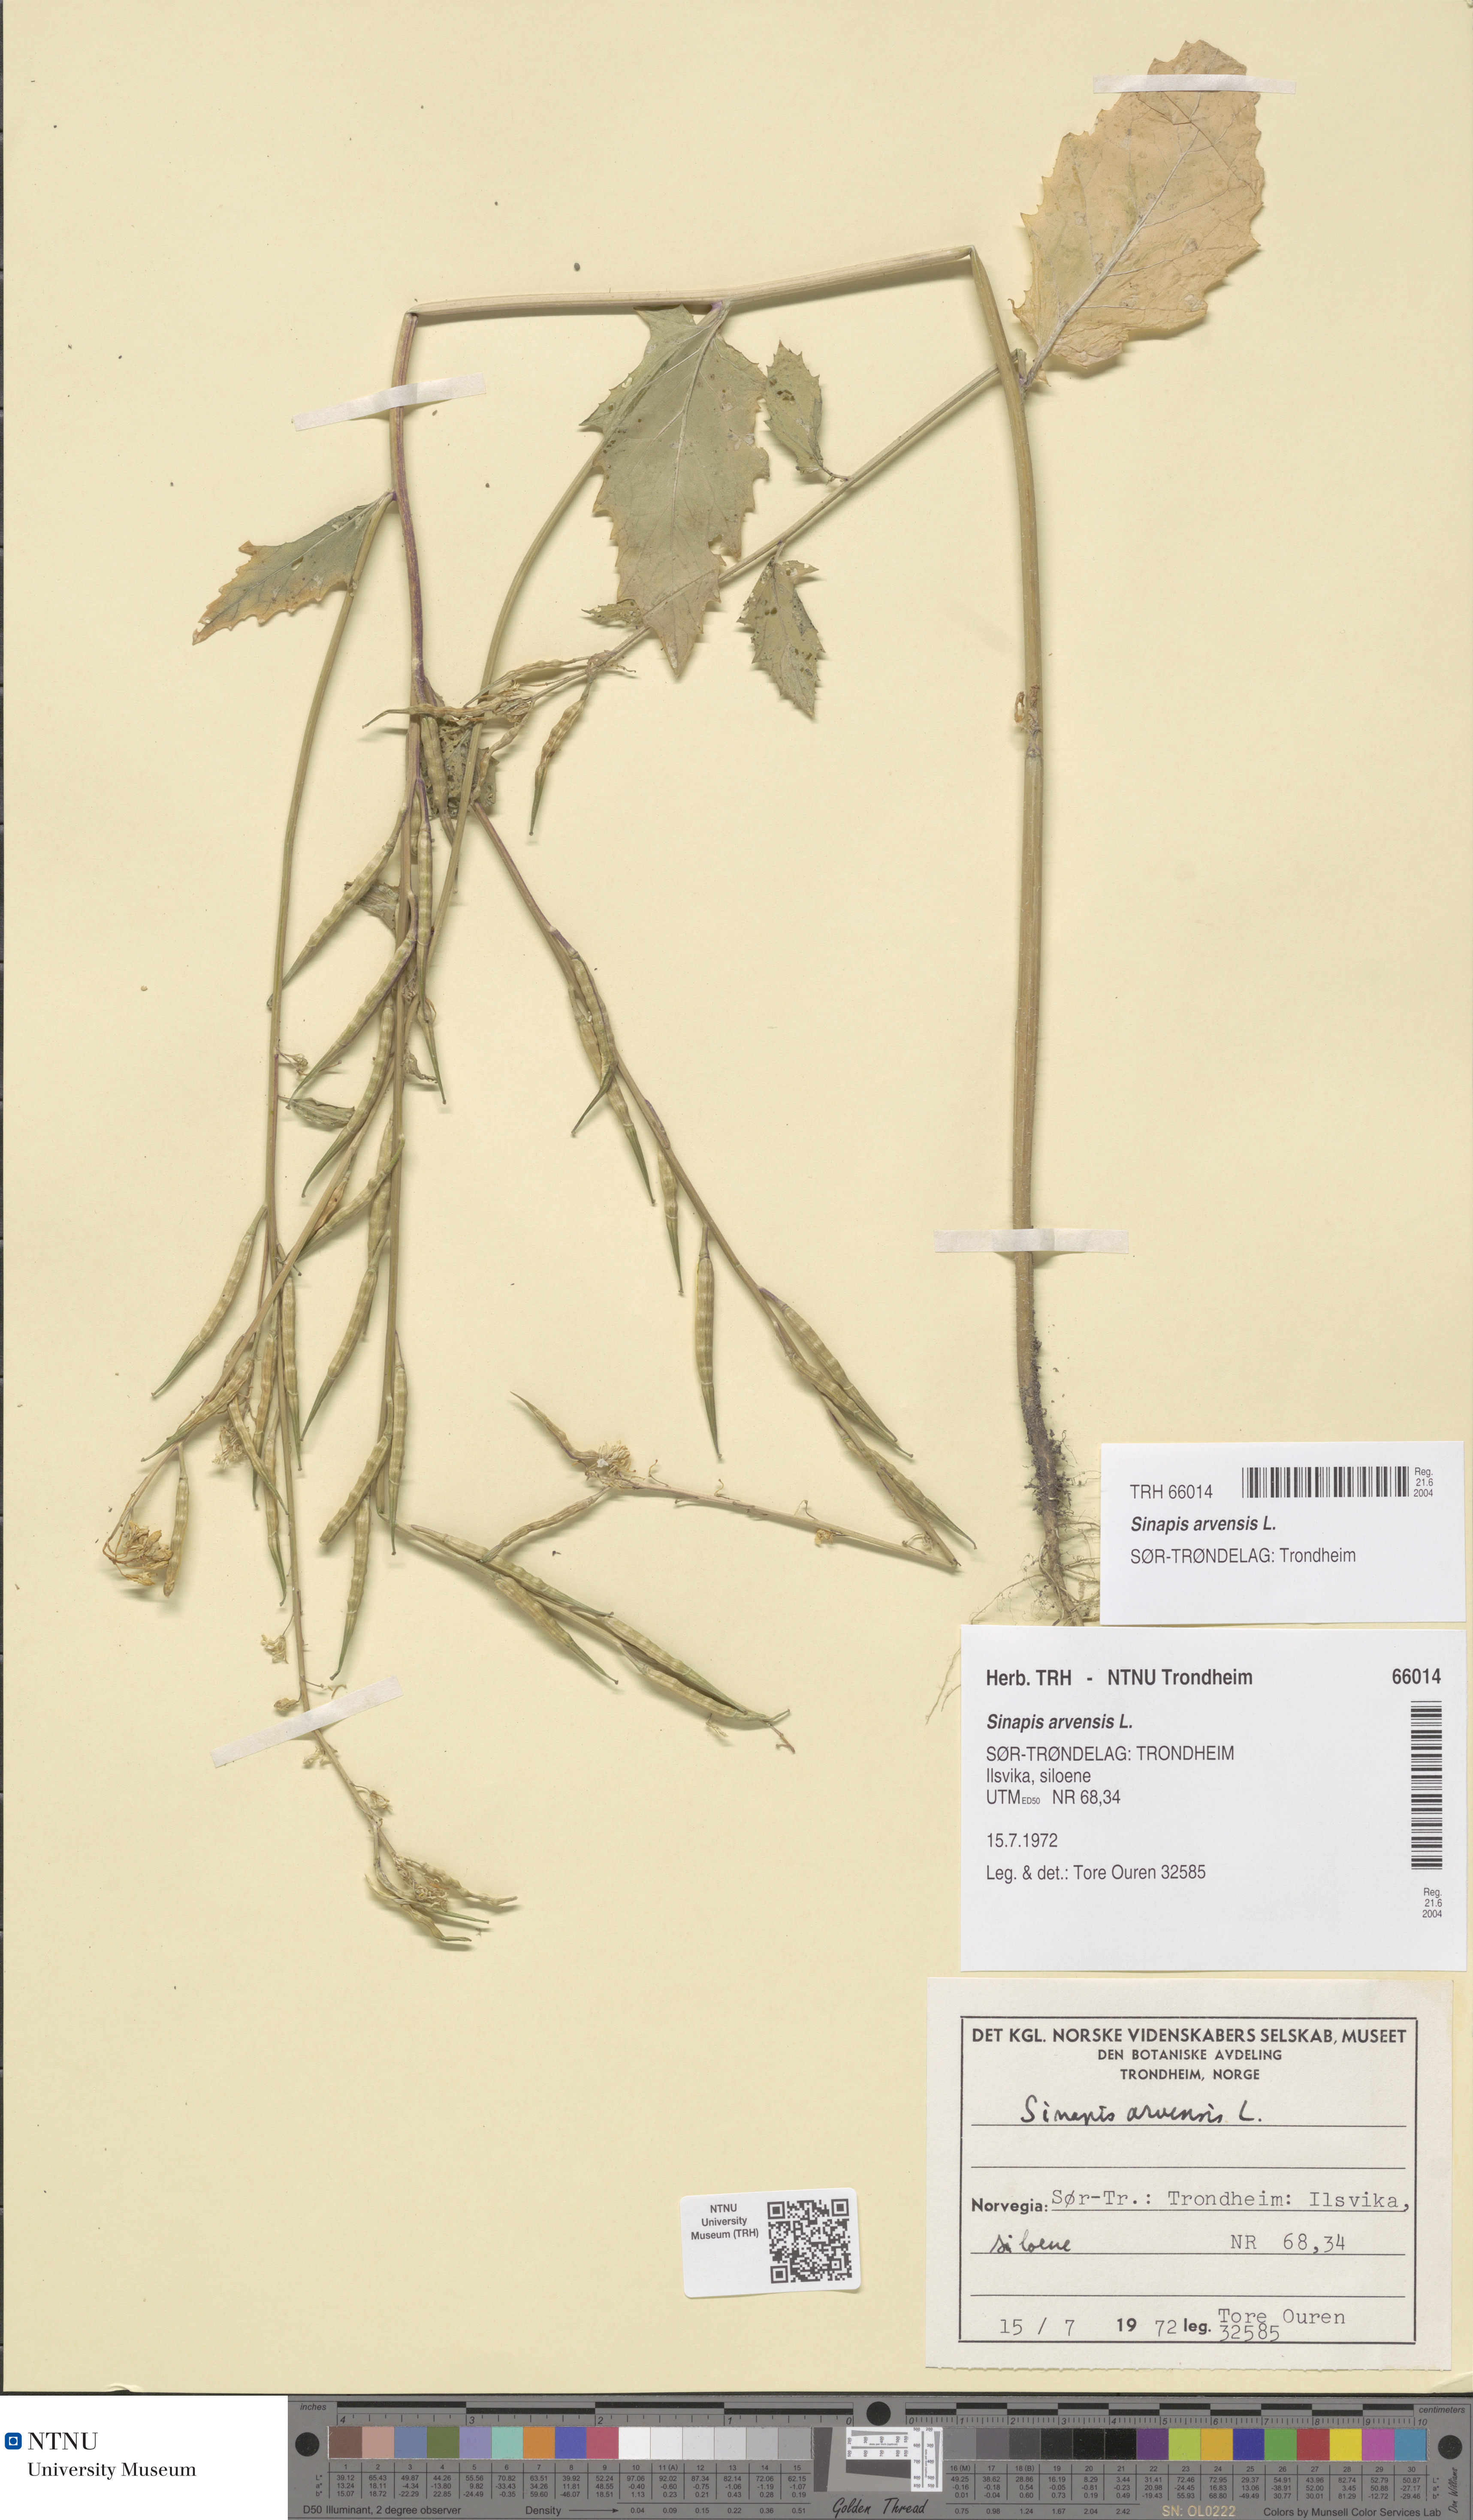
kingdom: Plantae
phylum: Tracheophyta
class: Magnoliopsida
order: Brassicales
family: Brassicaceae
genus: Sinapis
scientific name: Sinapis arvensis
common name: Charlock
